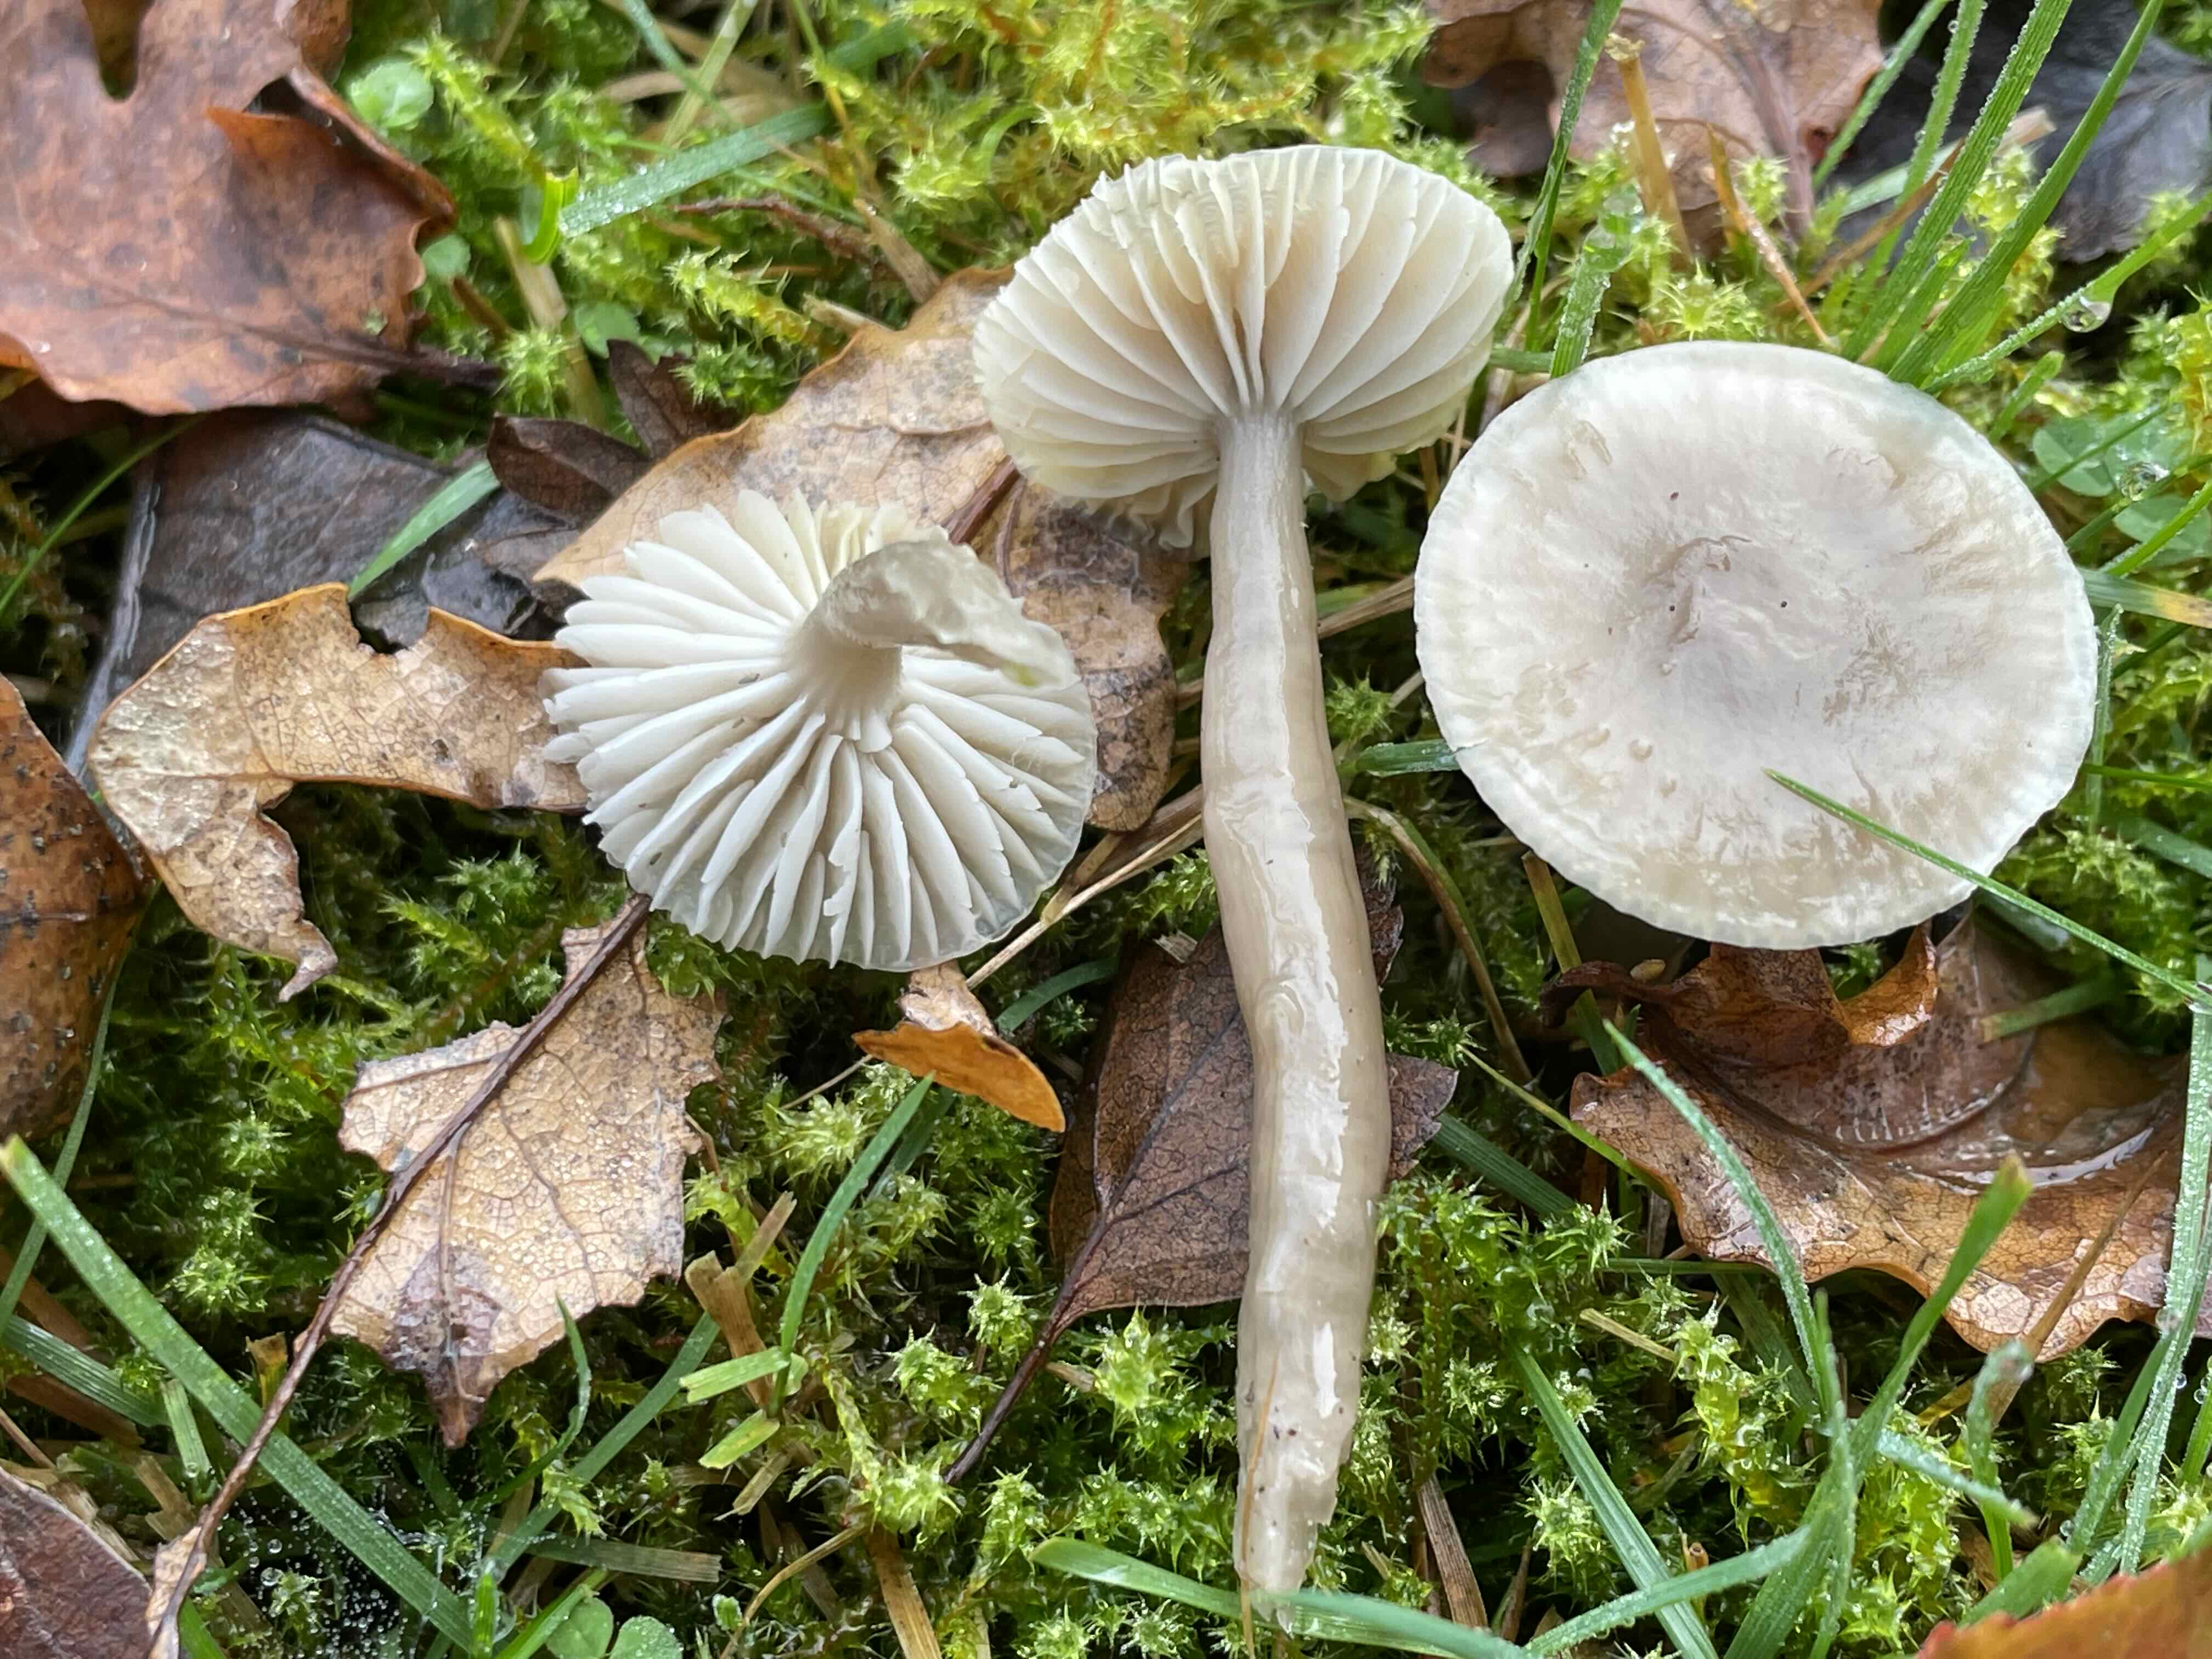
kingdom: Fungi
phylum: Basidiomycota
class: Agaricomycetes
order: Agaricales
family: Hygrophoraceae
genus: Gliophorus
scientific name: Gliophorus irrigatus
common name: slimet vokshat
